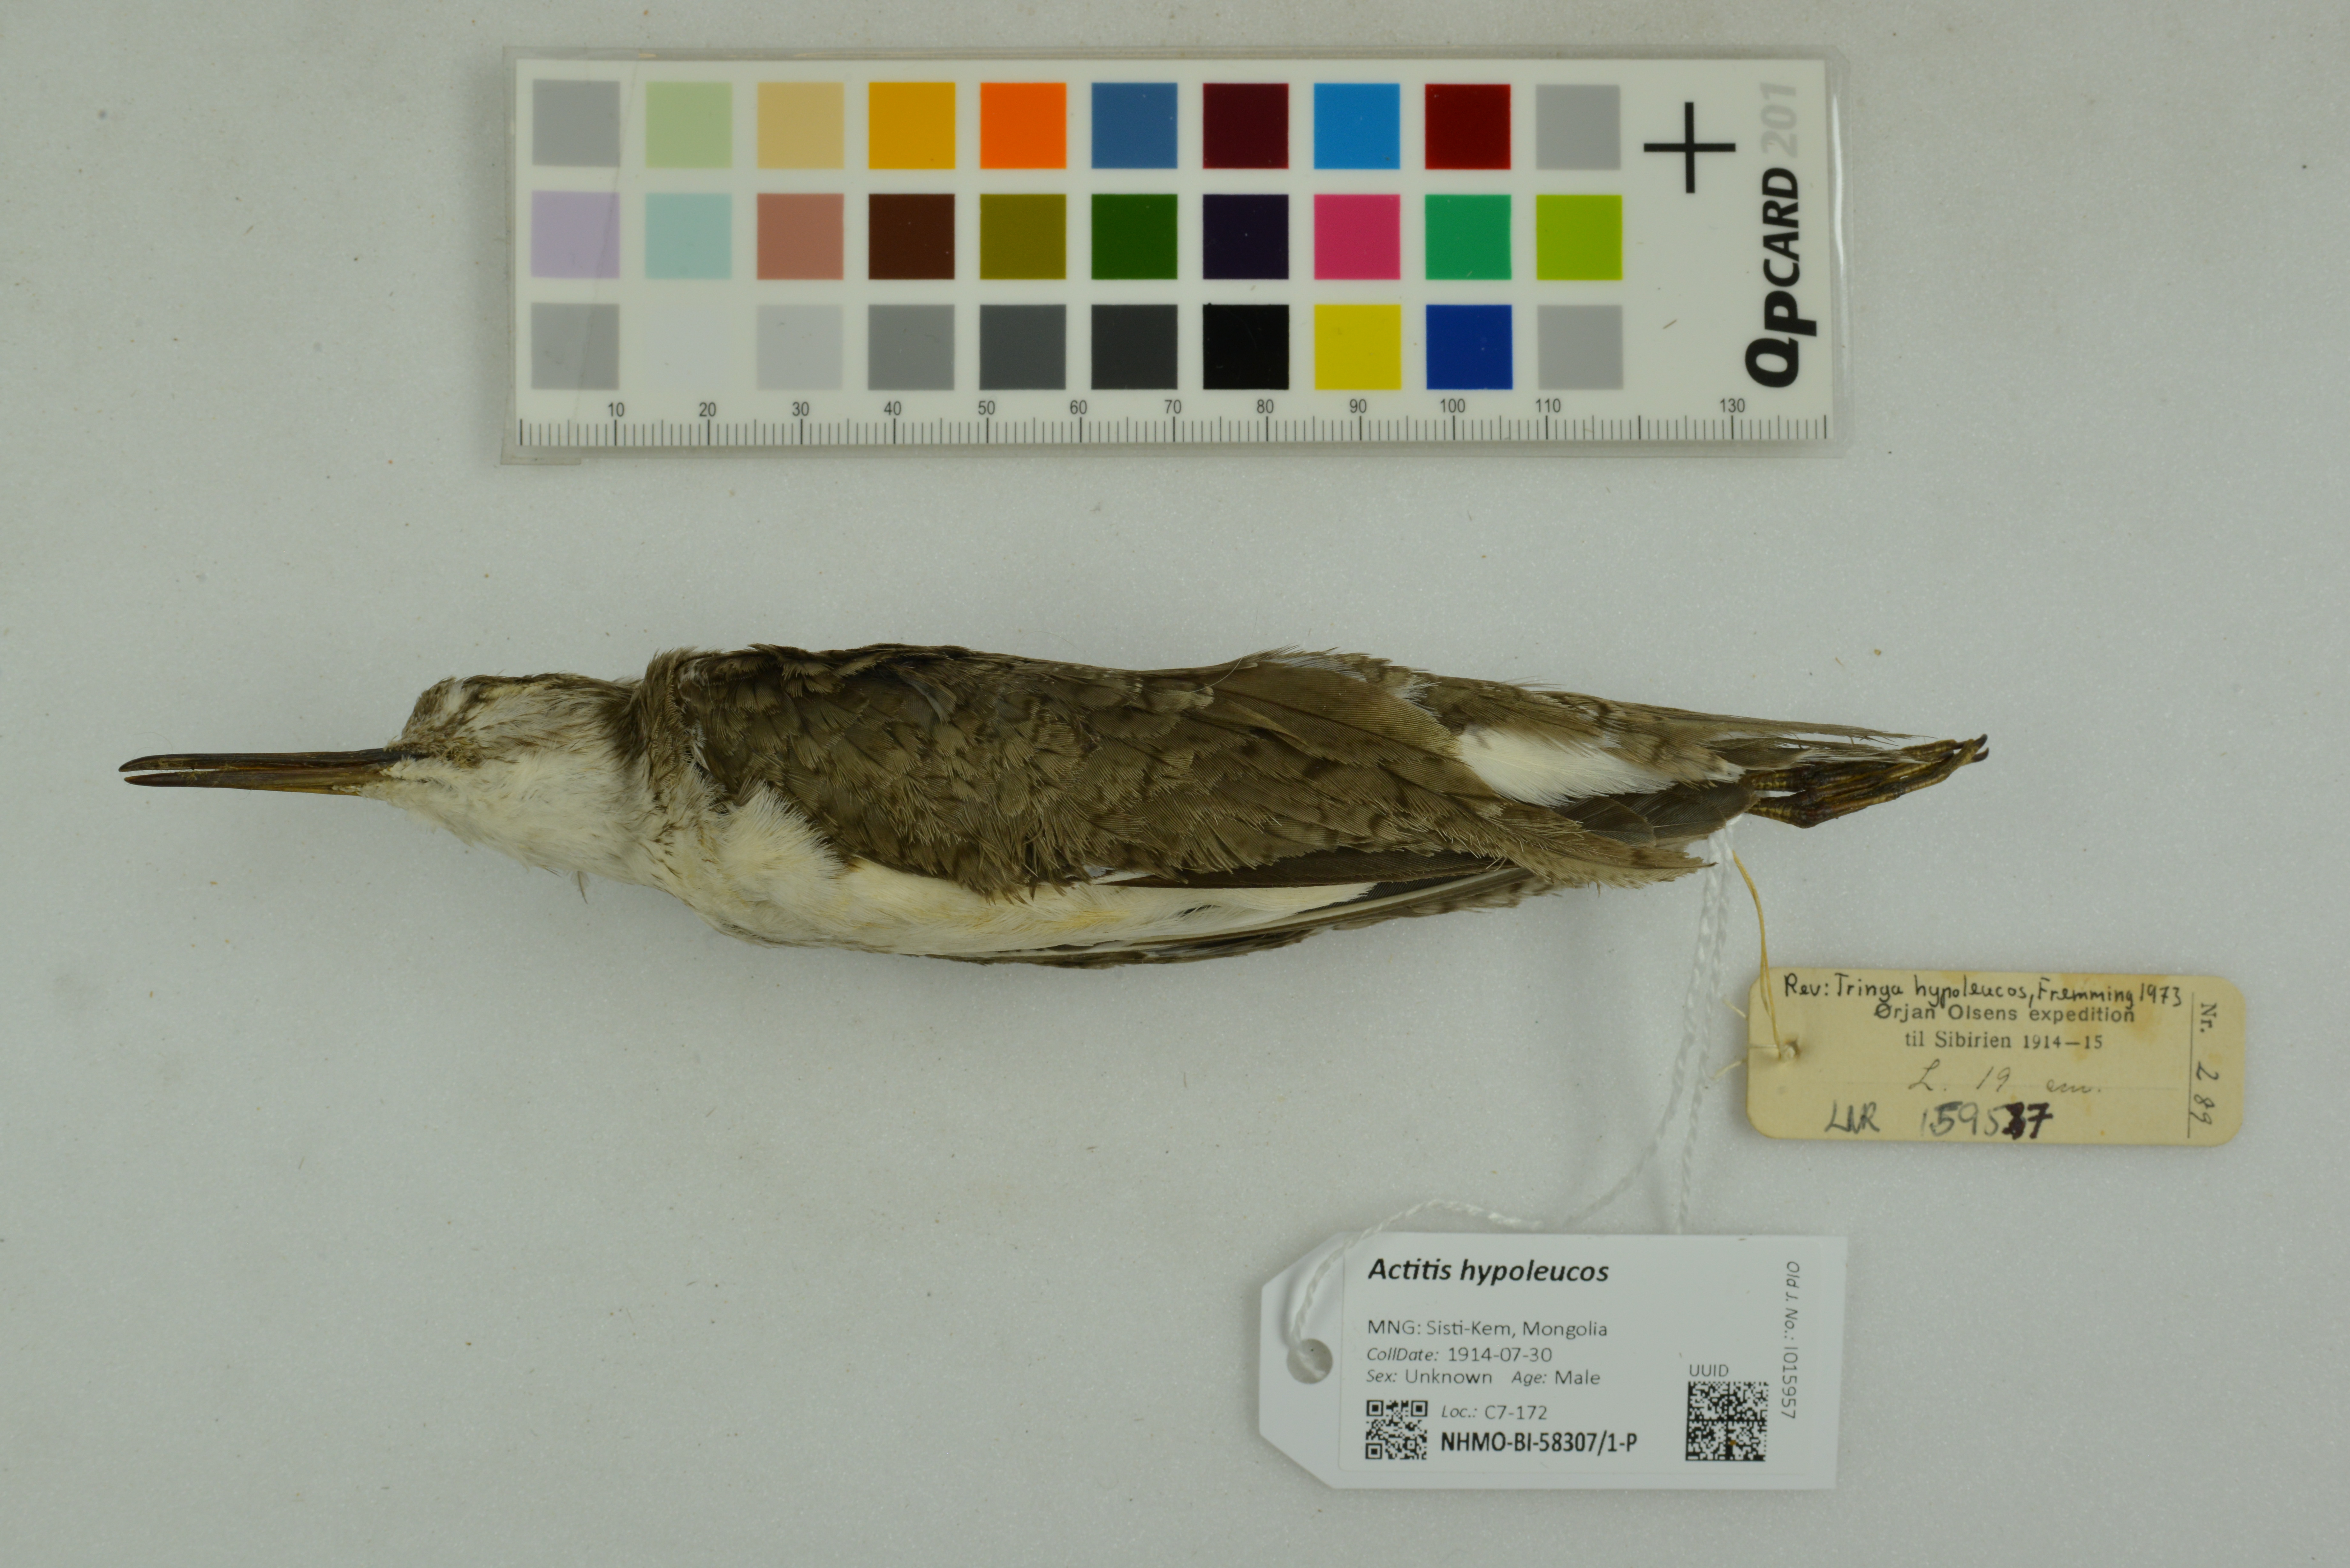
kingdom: Animalia
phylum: Chordata
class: Aves
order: Charadriiformes
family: Scolopacidae
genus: Actitis
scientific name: Actitis hypoleucos
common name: Common sandpiper
